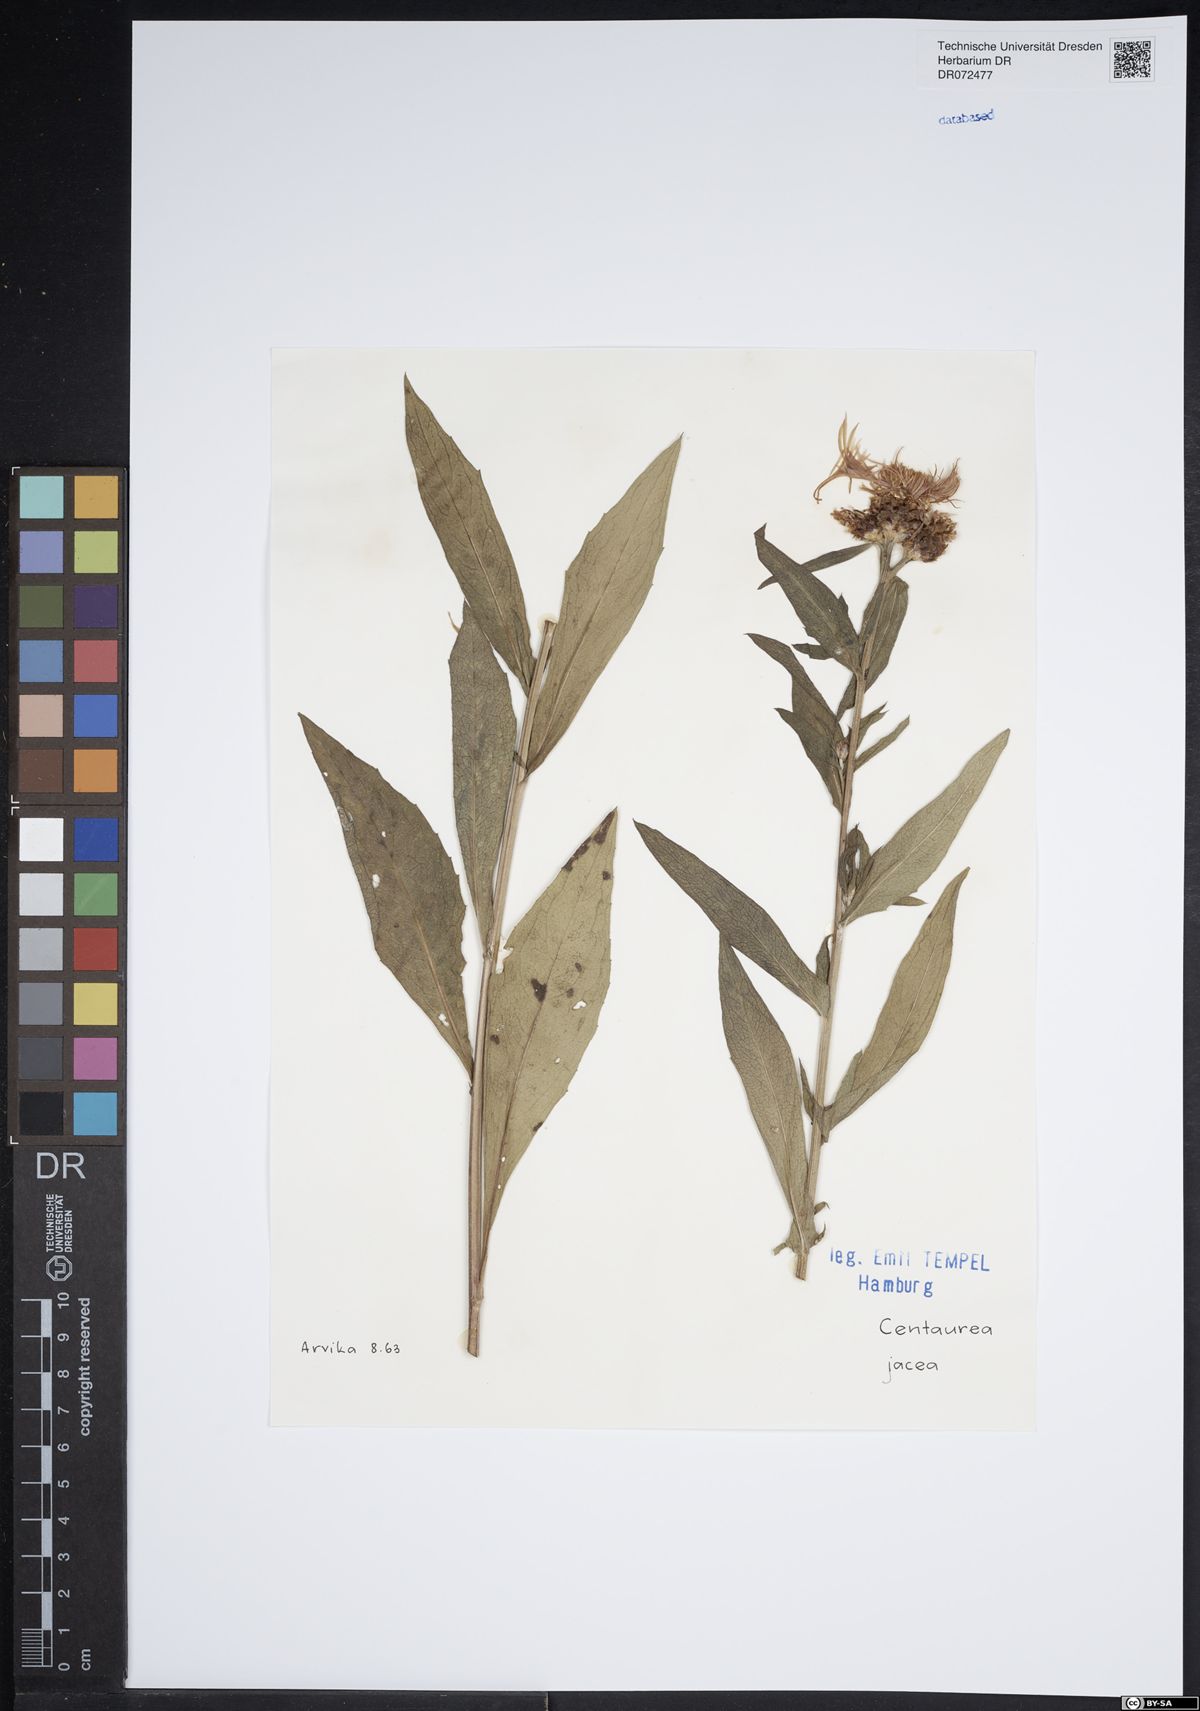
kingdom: Plantae
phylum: Tracheophyta
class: Magnoliopsida
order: Asterales
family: Asteraceae
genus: Centaurea
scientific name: Centaurea jacea
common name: Brown knapweed
